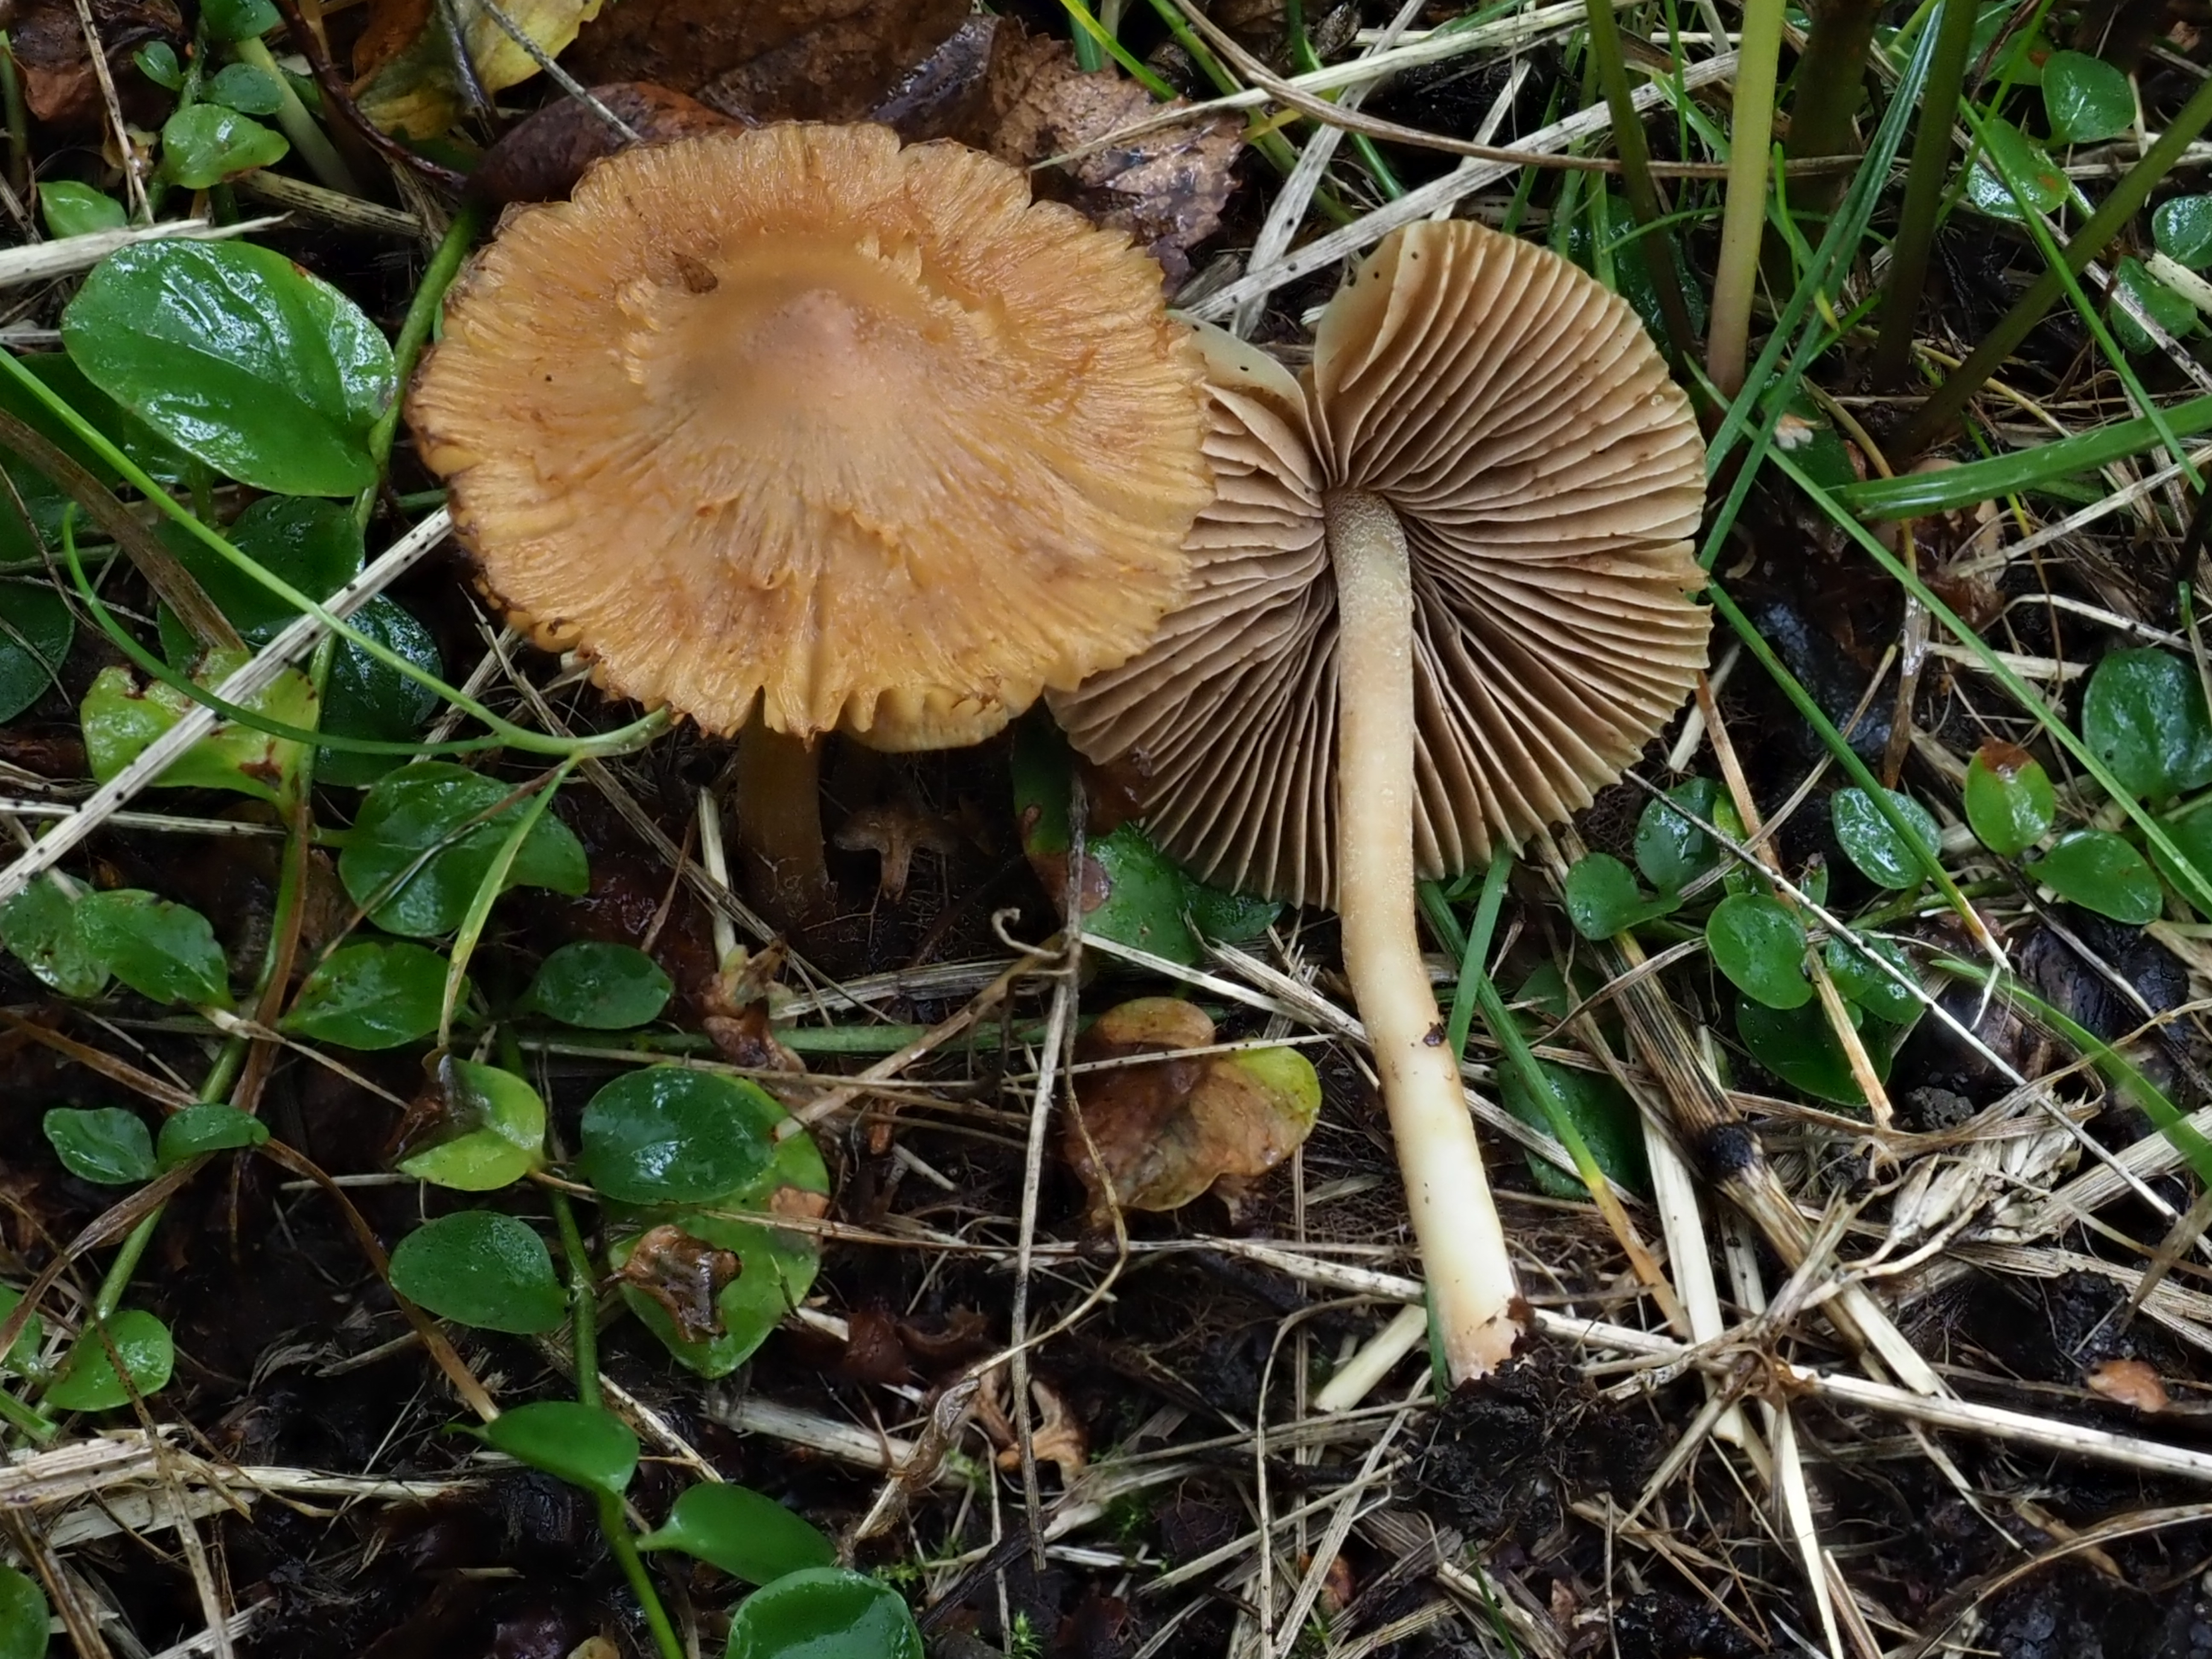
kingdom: Fungi
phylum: Basidiomycota
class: Agaricomycetes
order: Agaricales
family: Inocybaceae
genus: Inocybe
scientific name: Inocybe lacunarum
